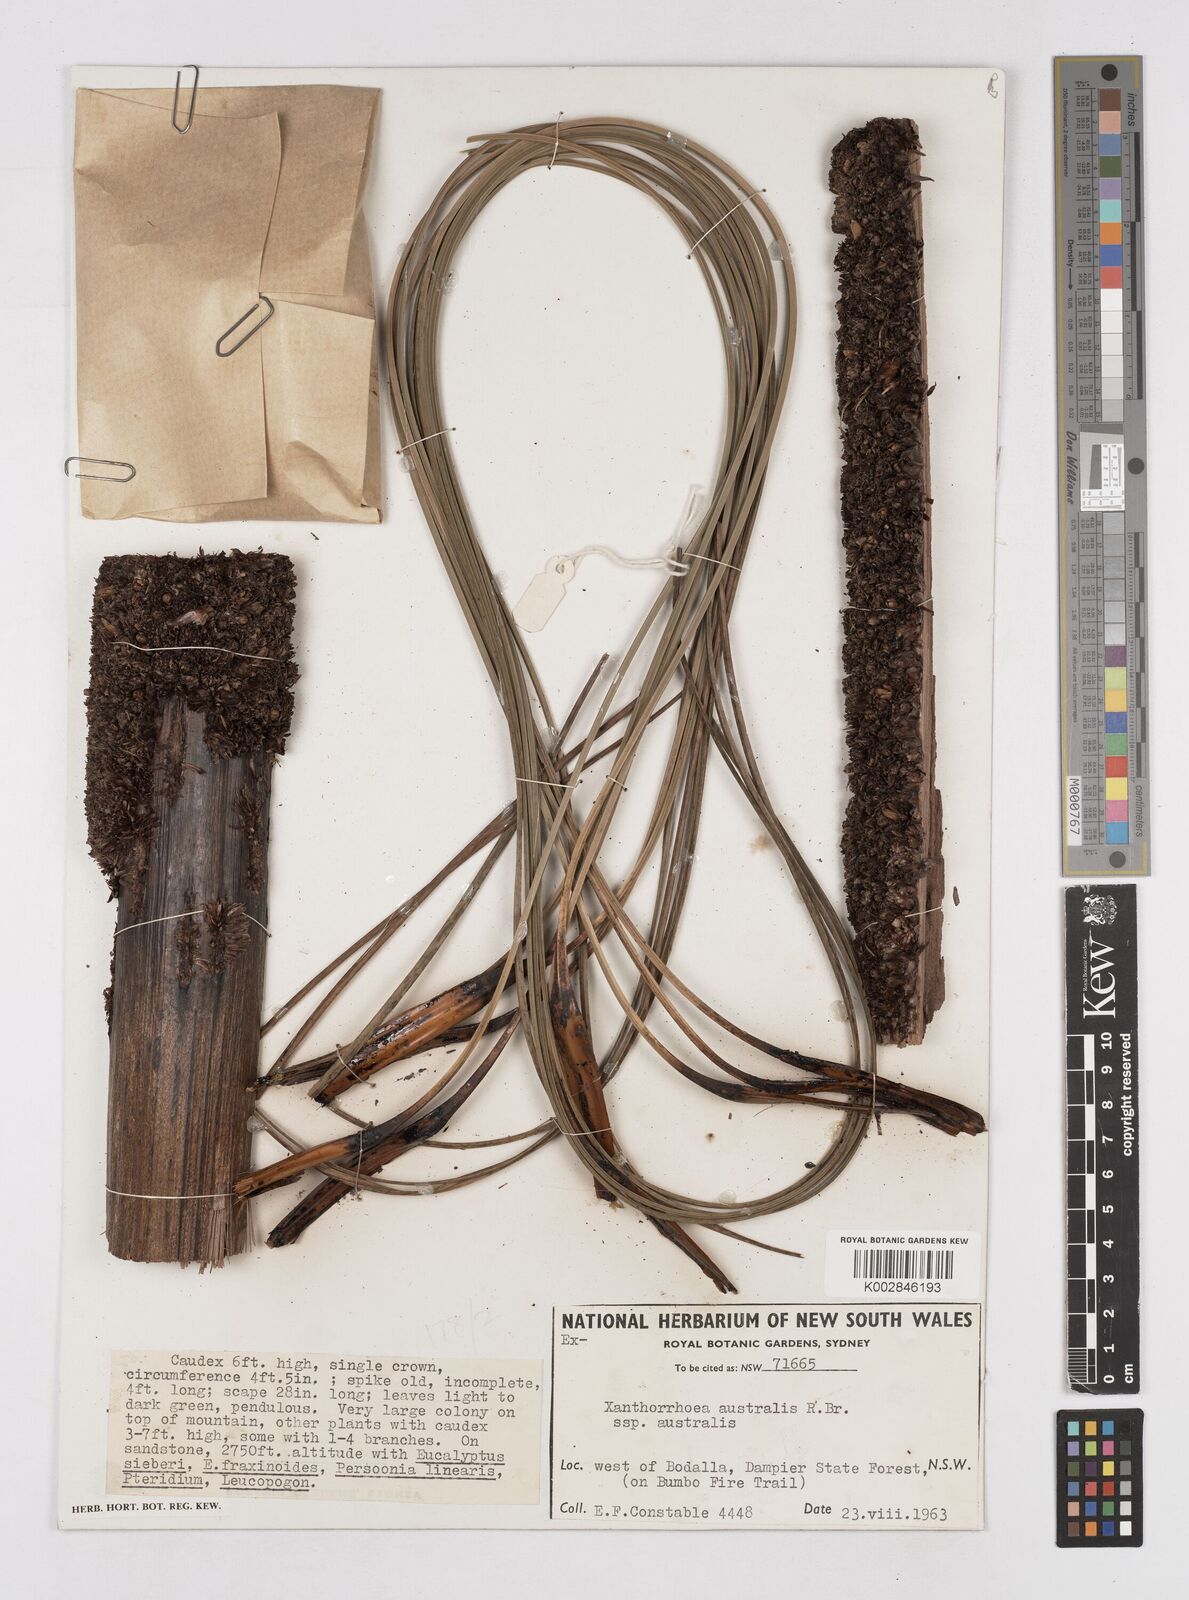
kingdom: Plantae
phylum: Tracheophyta
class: Liliopsida
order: Asparagales
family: Asphodelaceae
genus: Xanthorrhoea
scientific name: Xanthorrhoea australis
